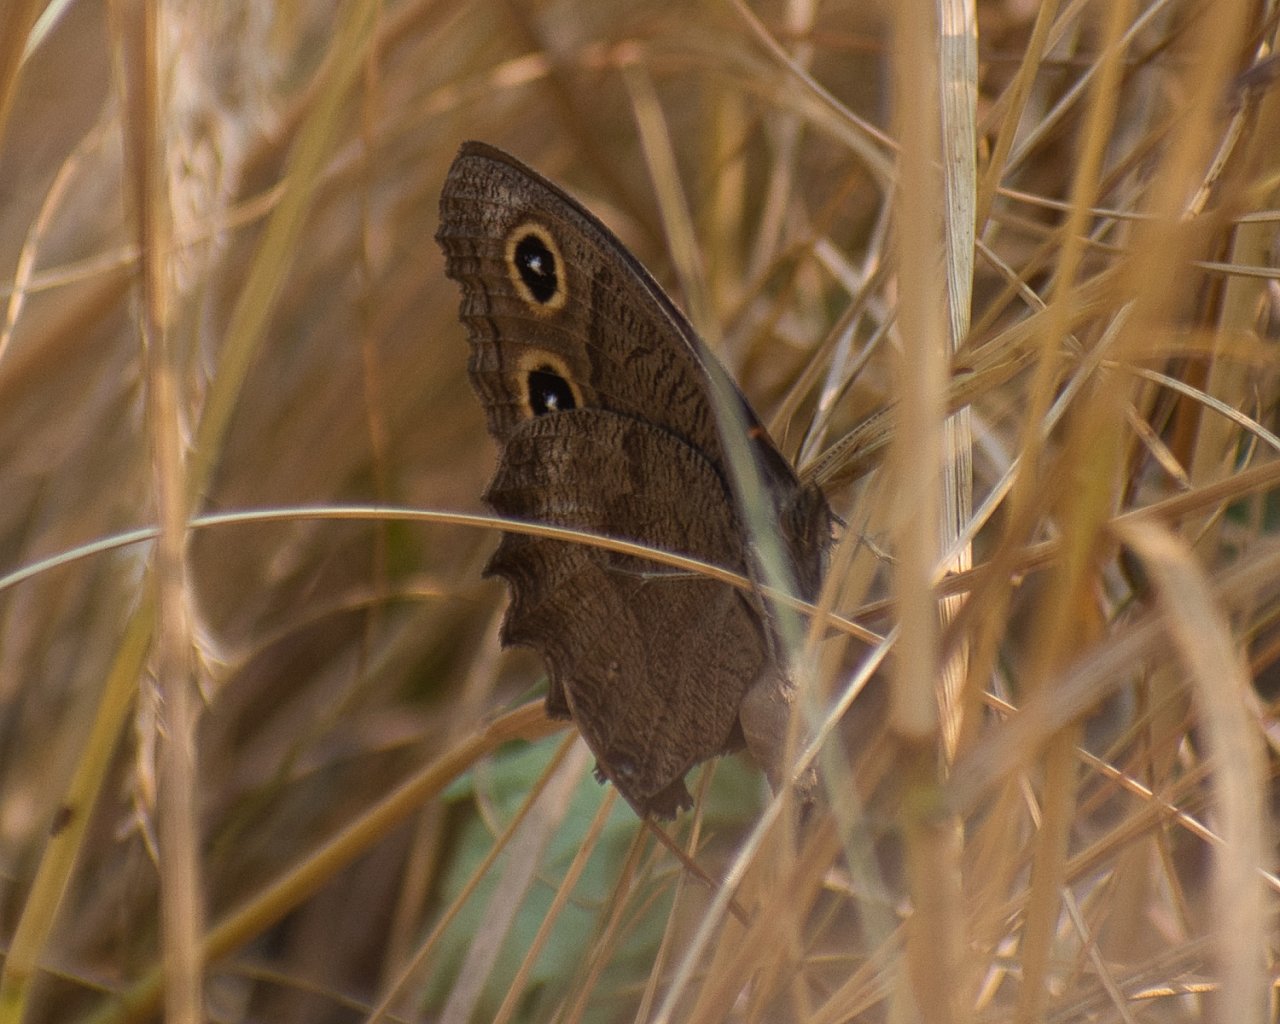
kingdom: Animalia
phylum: Arthropoda
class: Insecta
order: Lepidoptera
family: Nymphalidae
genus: Cercyonis
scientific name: Cercyonis pegala
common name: Common Wood-Nymph
